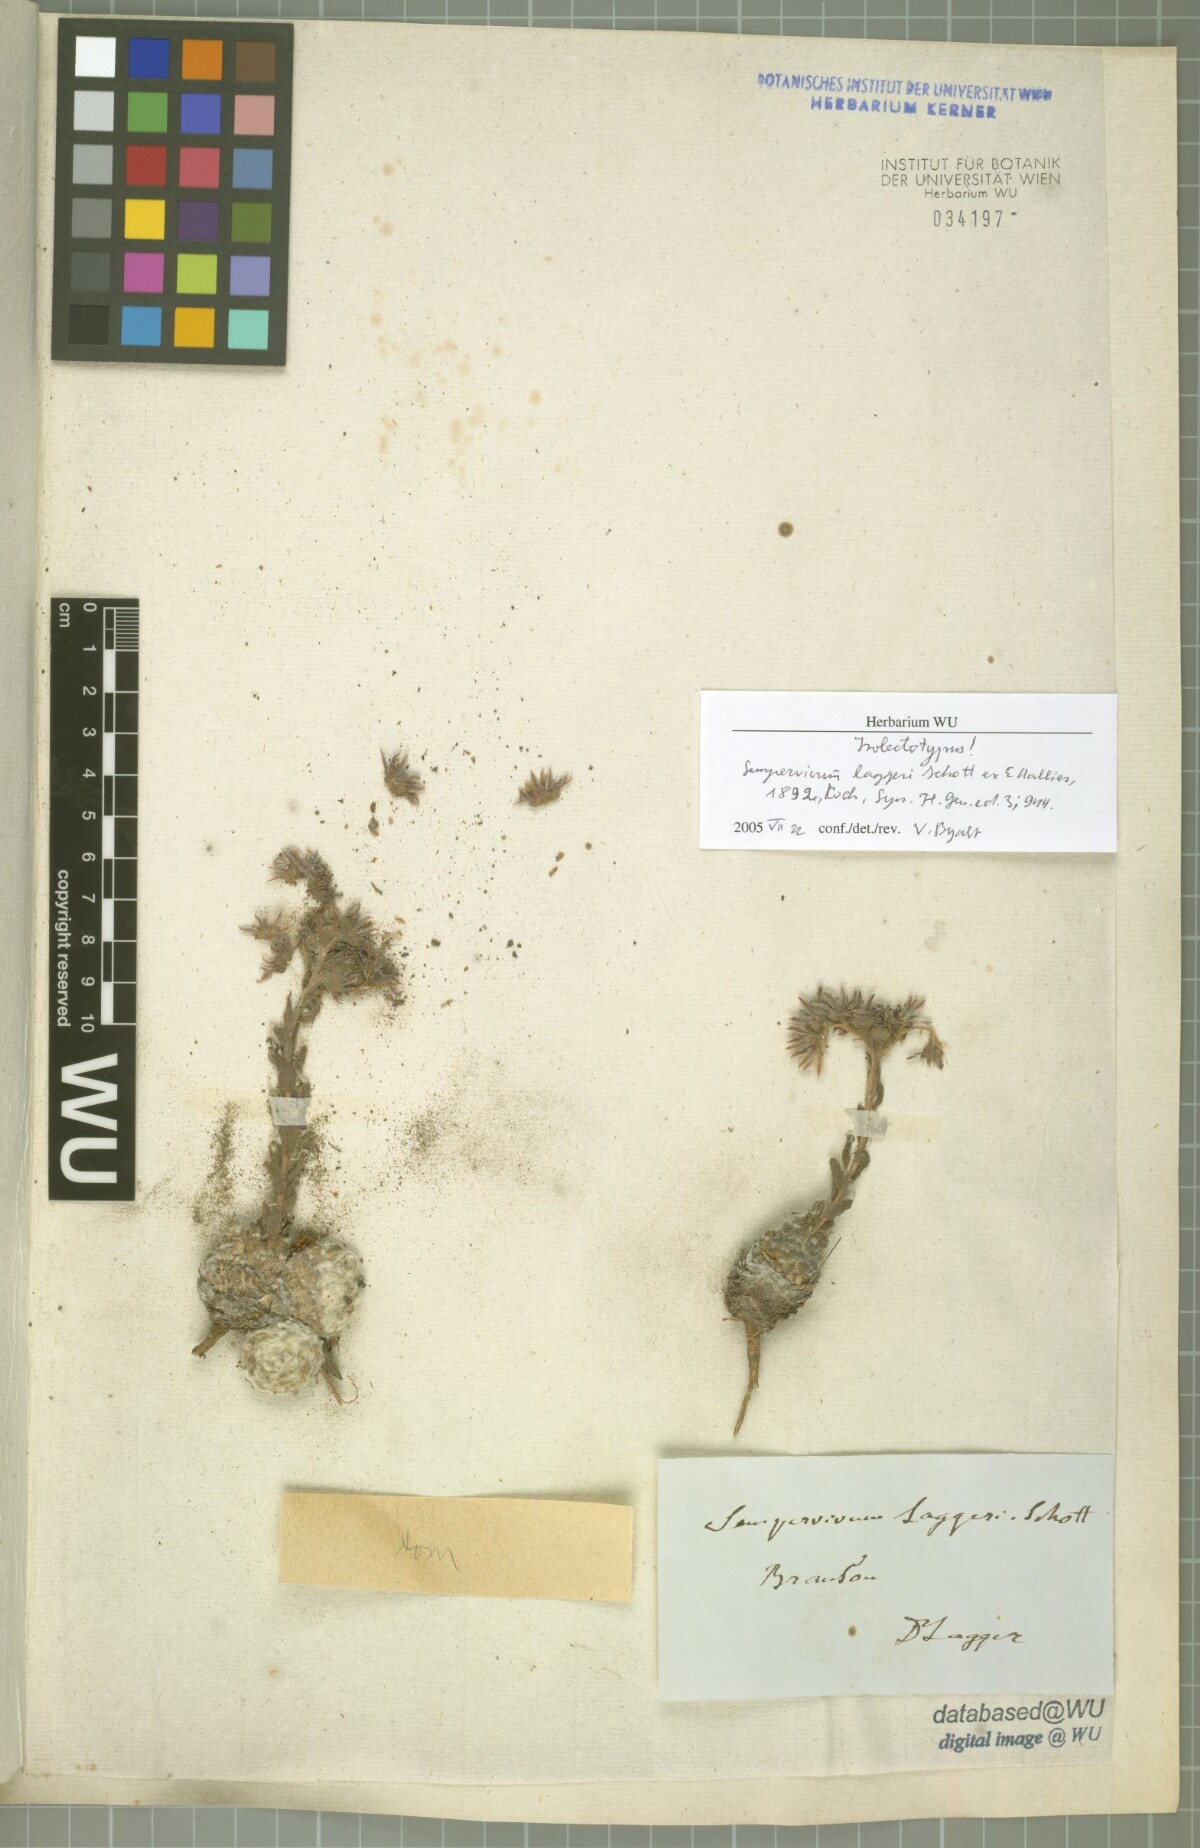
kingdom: Plantae
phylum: Tracheophyta
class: Magnoliopsida
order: Saxifragales
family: Crassulaceae
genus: Sempervivum
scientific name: Sempervivum arachnoideum
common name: Cobweb house-leek
